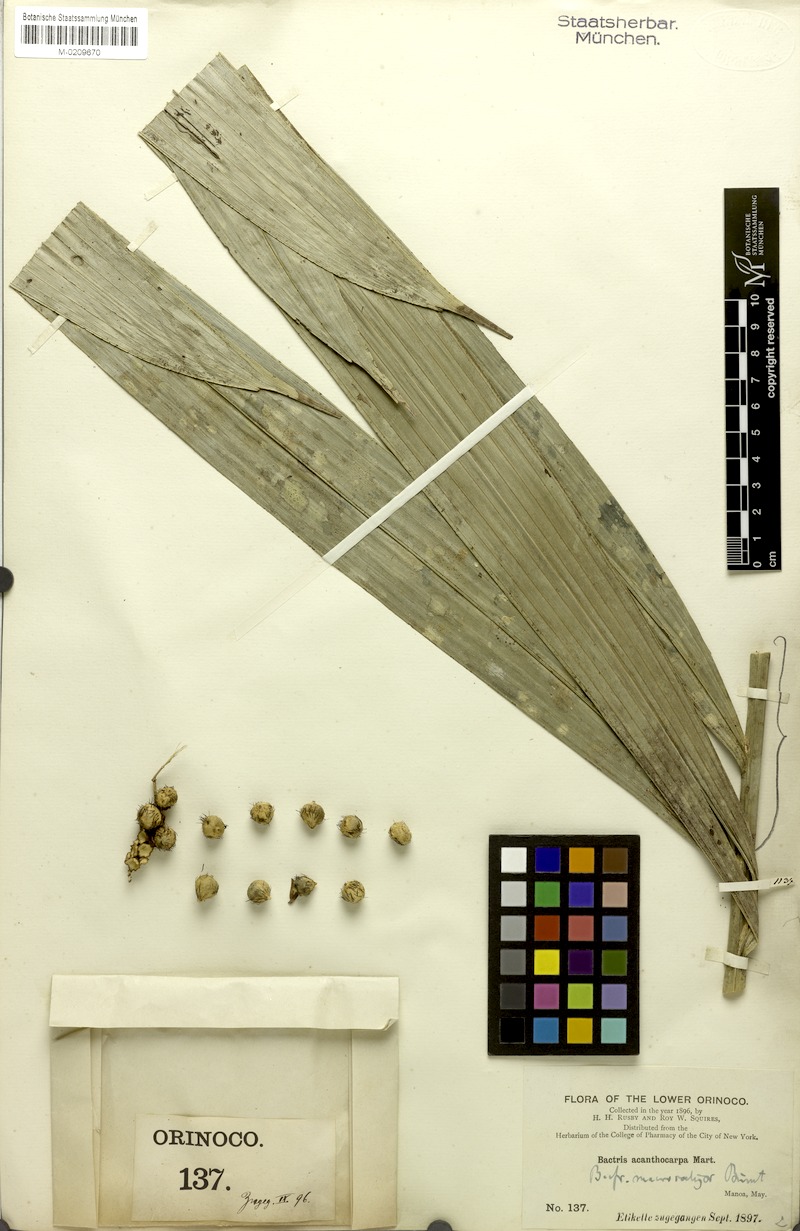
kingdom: Plantae
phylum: Tracheophyta
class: Liliopsida
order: Arecales
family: Arecaceae
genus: Bactris
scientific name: Bactris acanthocarpa
